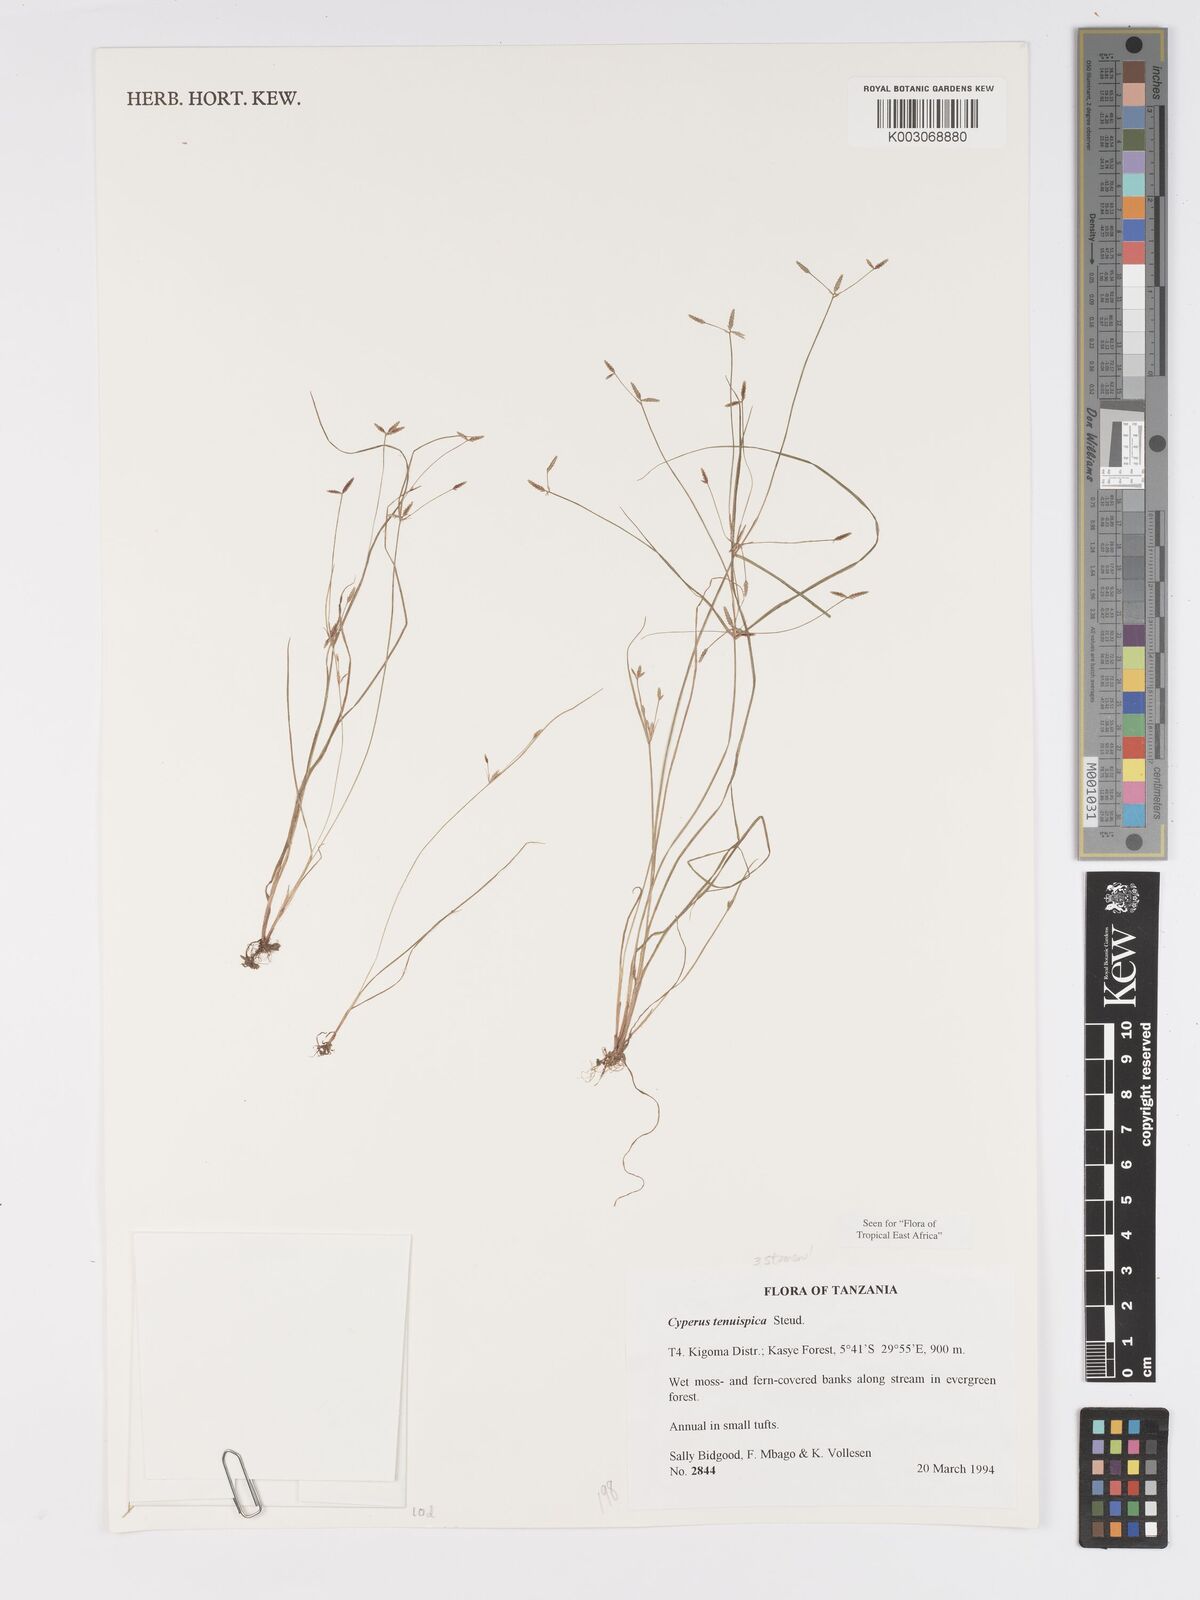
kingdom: Plantae
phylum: Tracheophyta
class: Liliopsida
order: Poales
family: Cyperaceae
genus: Cyperus
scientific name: Cyperus tenuispica
